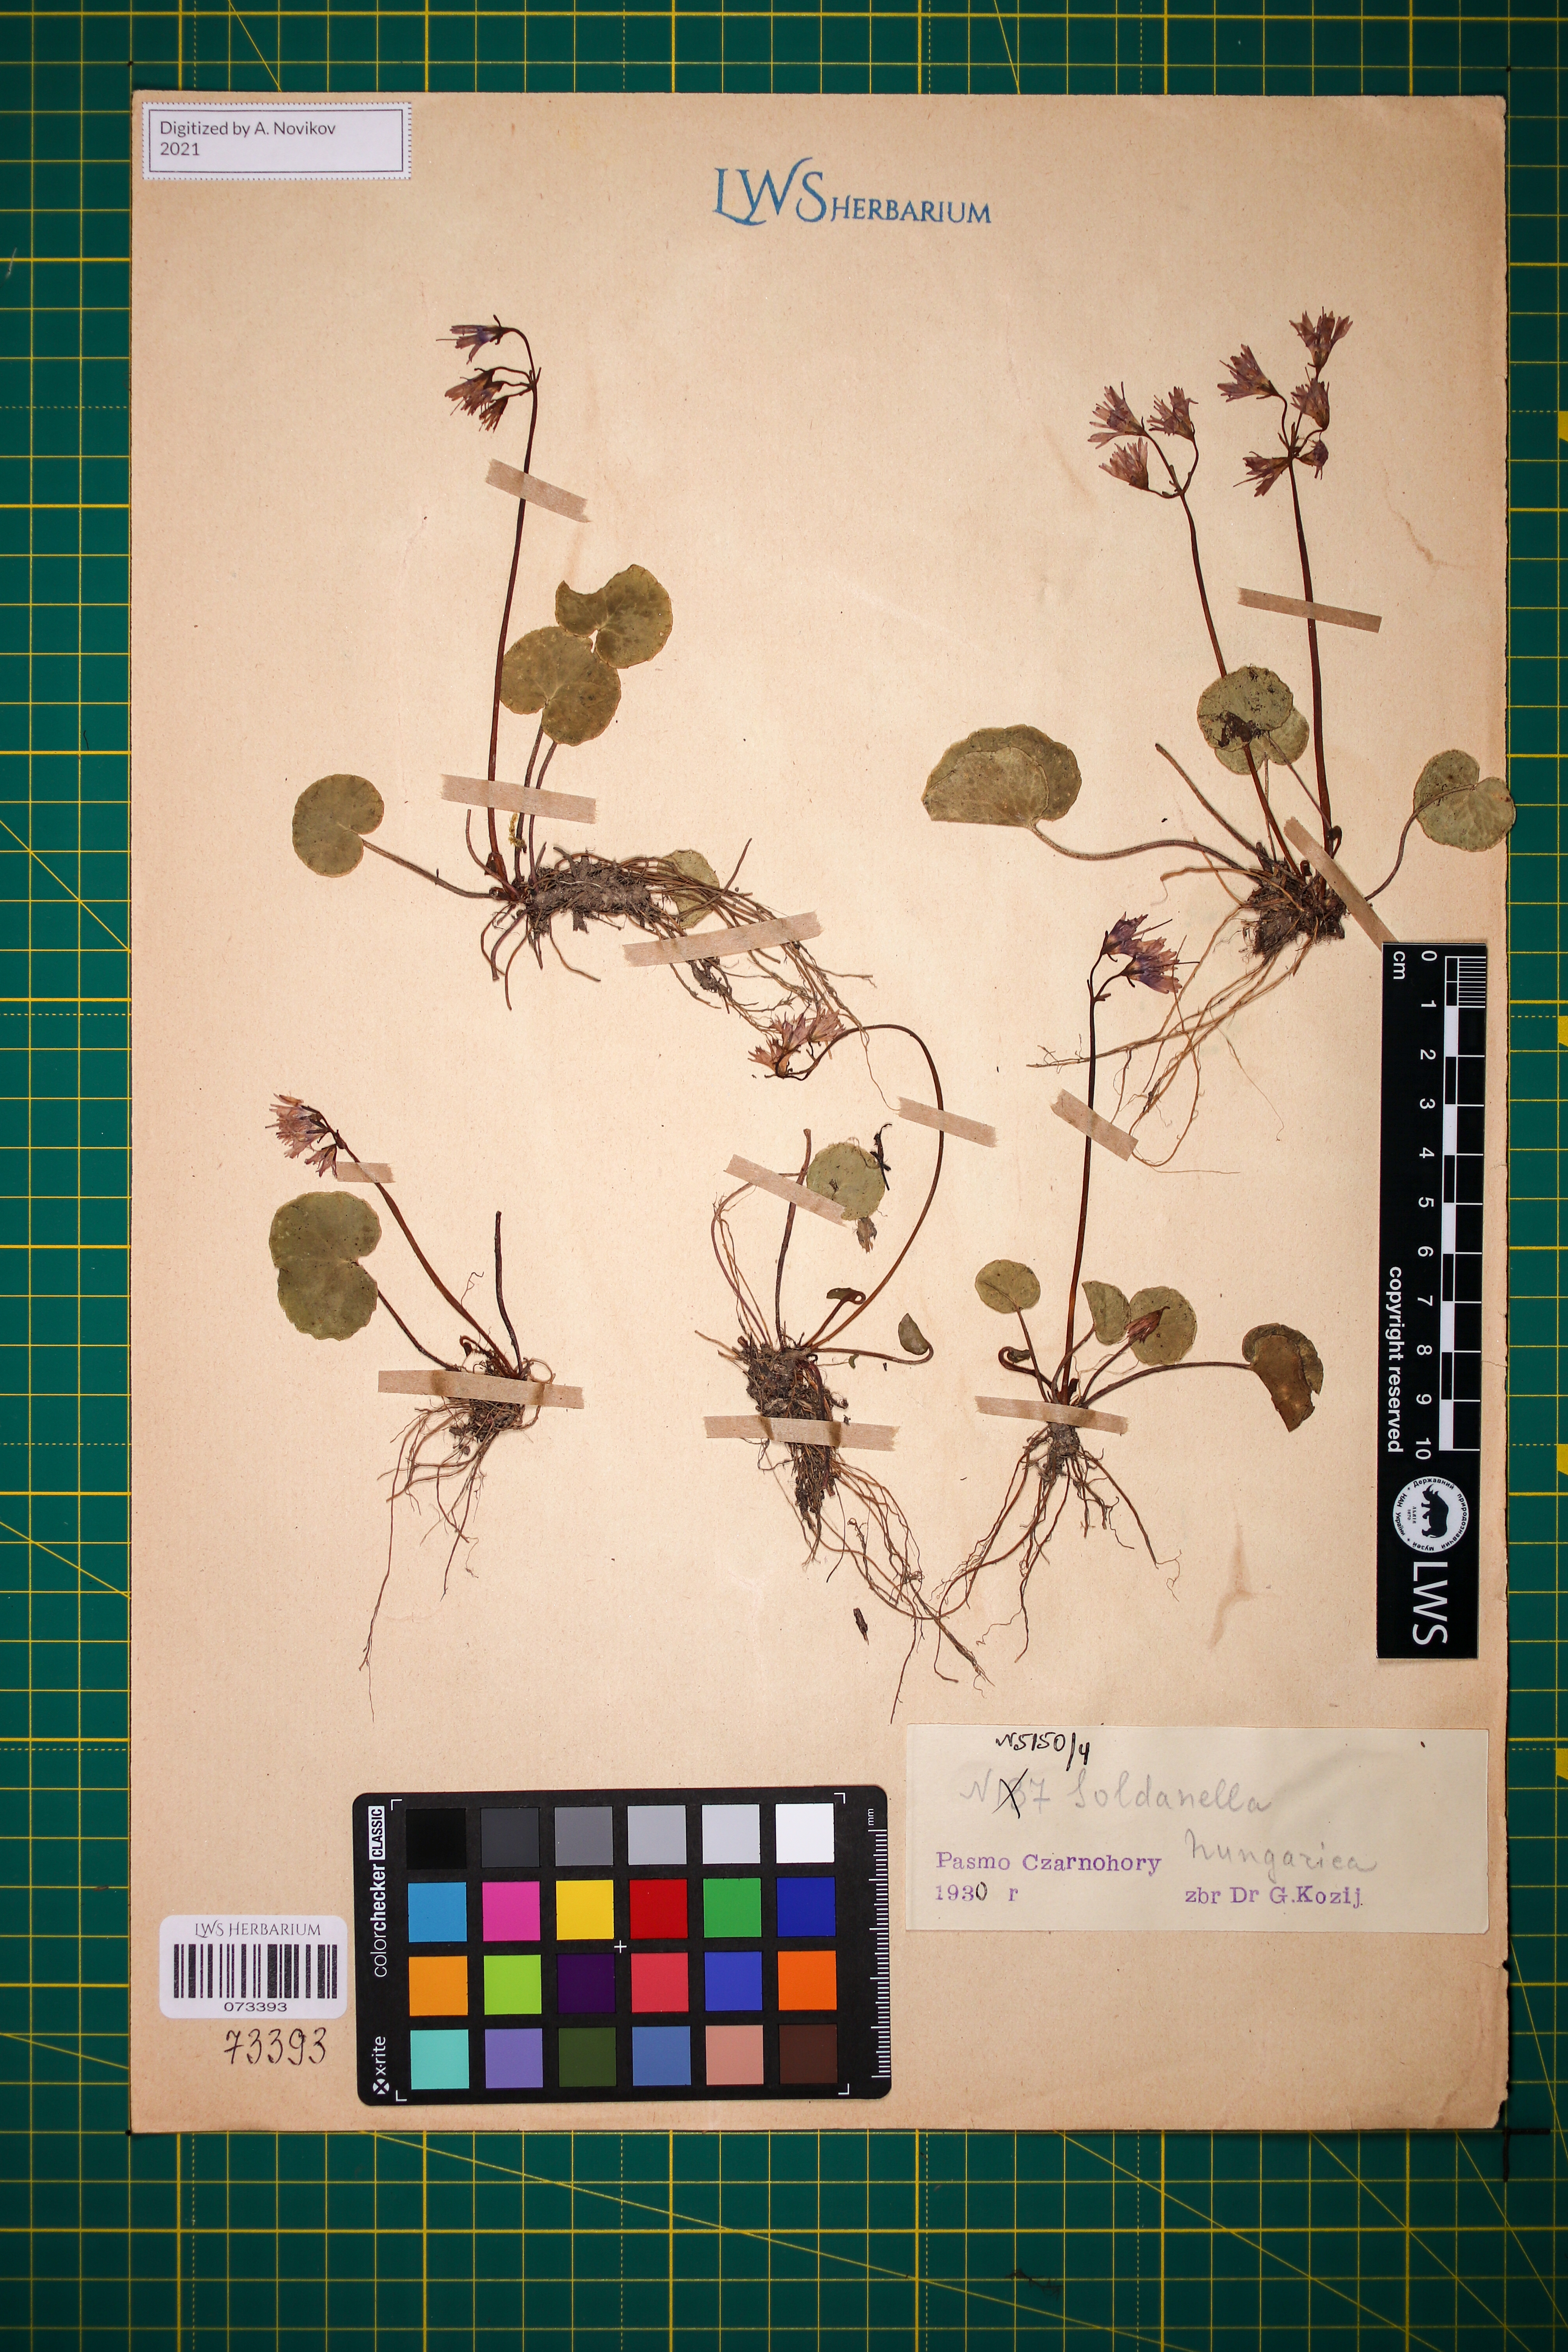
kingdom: Plantae
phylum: Tracheophyta
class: Magnoliopsida
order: Ericales
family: Primulaceae
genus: Soldanella
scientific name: Soldanella hungarica
